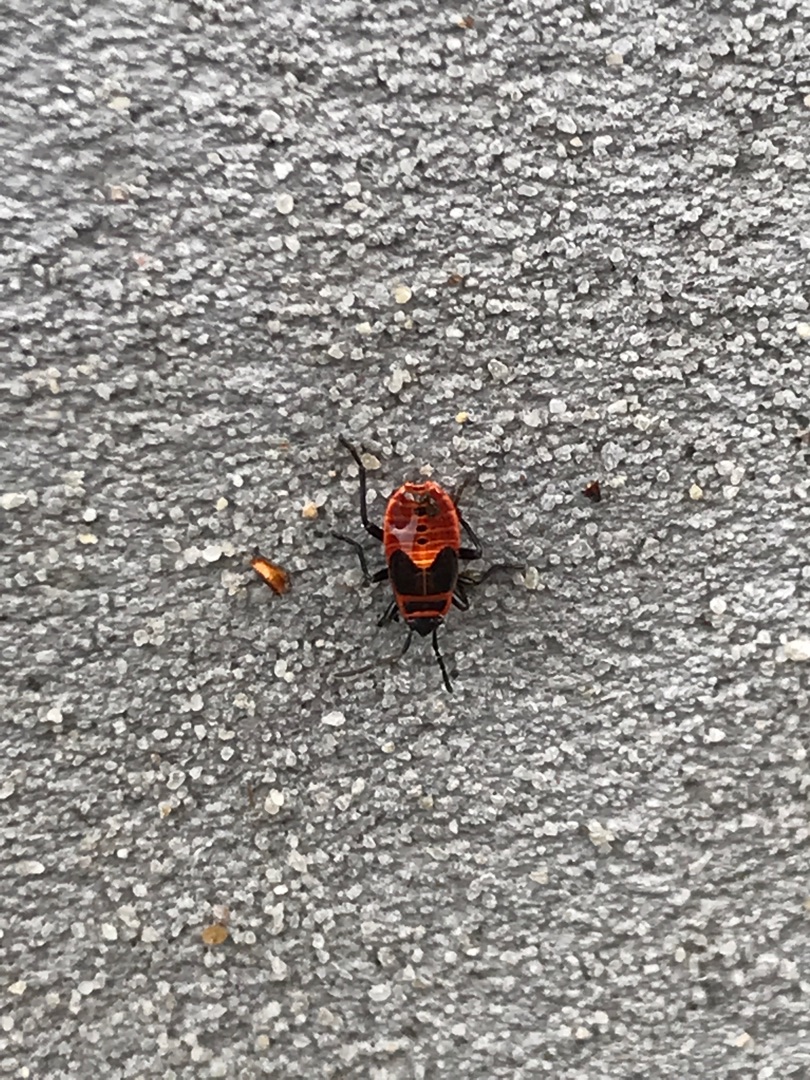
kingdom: Animalia
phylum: Arthropoda
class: Insecta
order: Hemiptera
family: Pyrrhocoridae
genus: Pyrrhocoris
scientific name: Pyrrhocoris apterus
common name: Ildtæge
